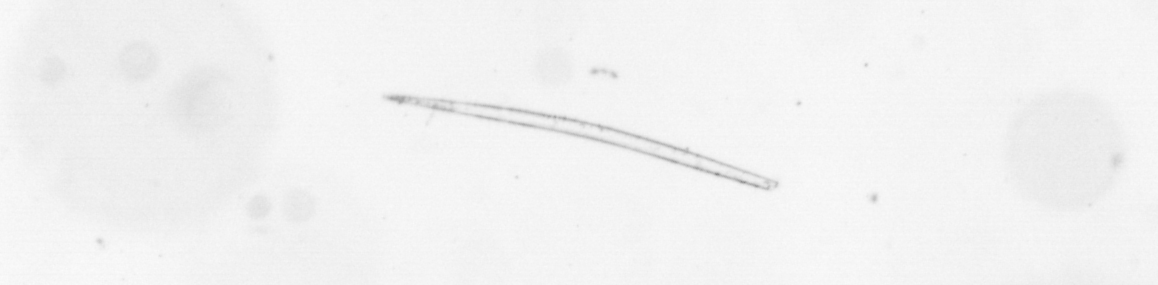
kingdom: Chromista
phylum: Ochrophyta
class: Bacillariophyceae
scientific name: Bacillariophyceae
